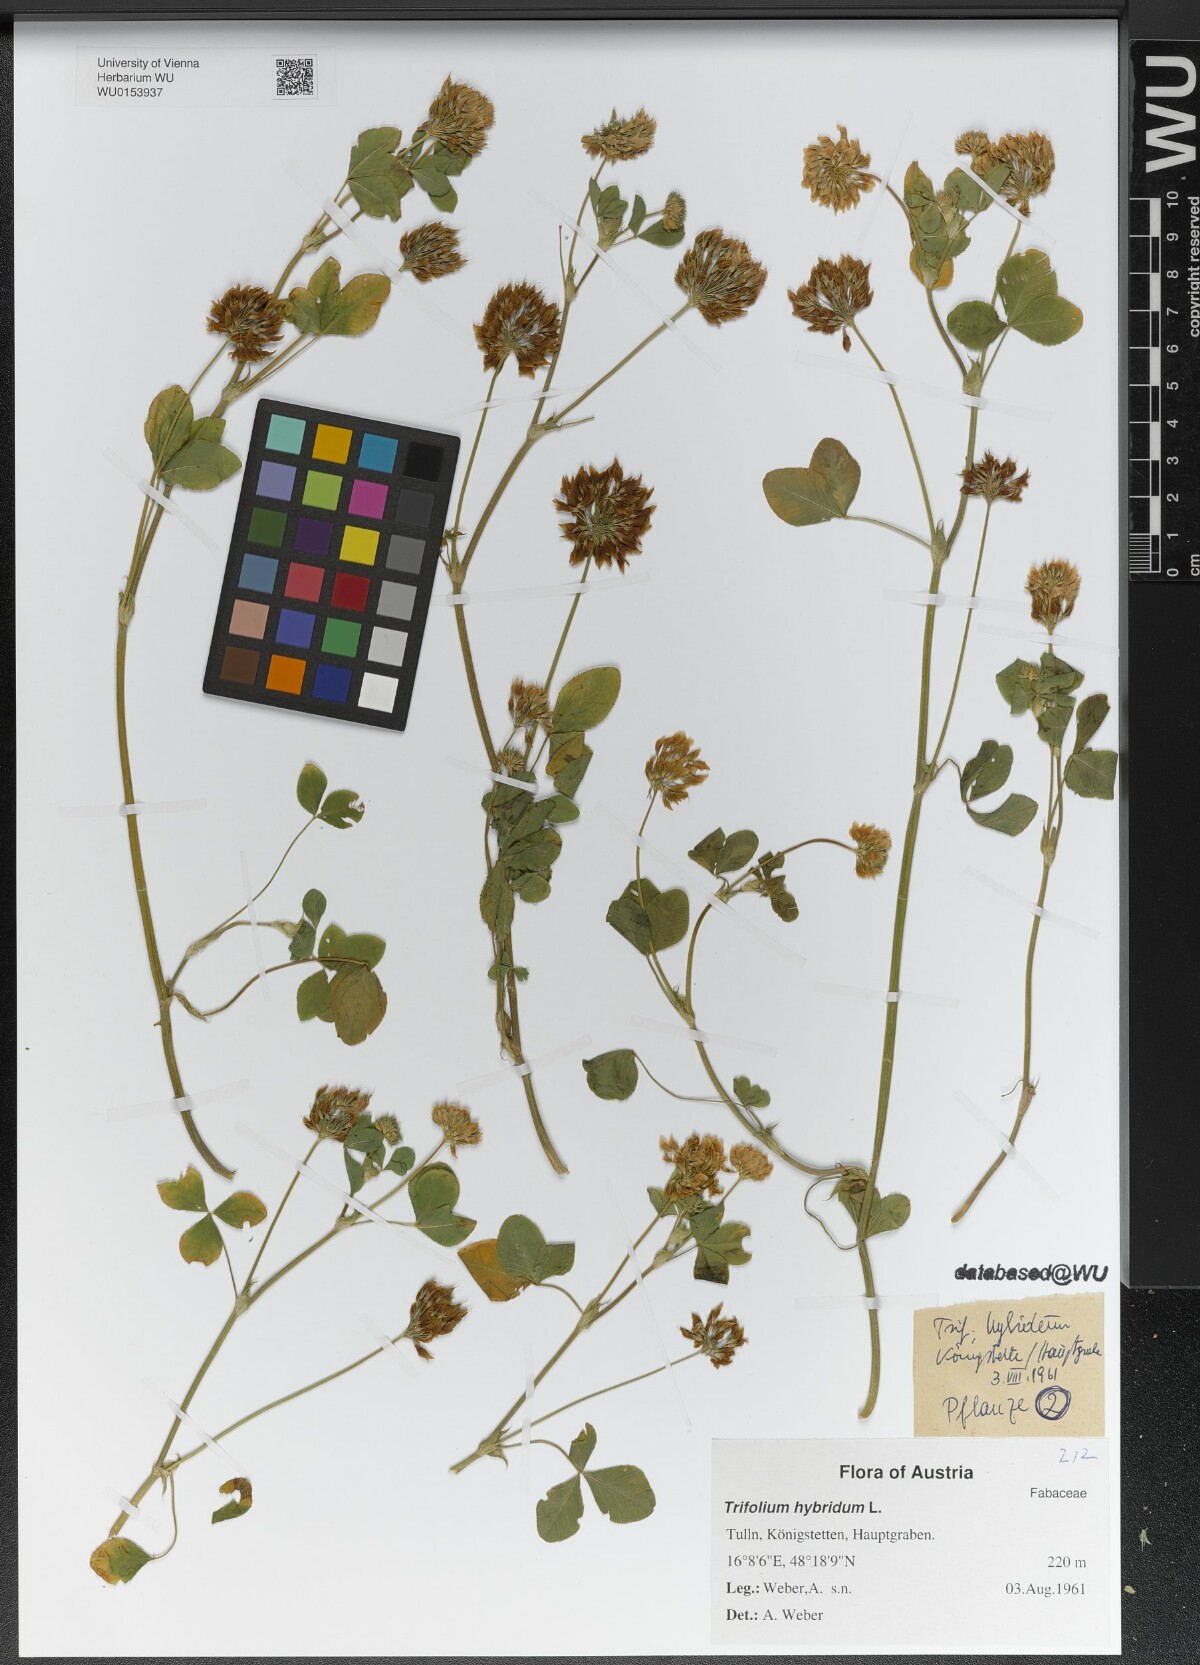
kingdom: Plantae
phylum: Tracheophyta
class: Magnoliopsida
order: Fabales
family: Fabaceae
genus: Trifolium
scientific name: Trifolium hybridum
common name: Alsike clover
